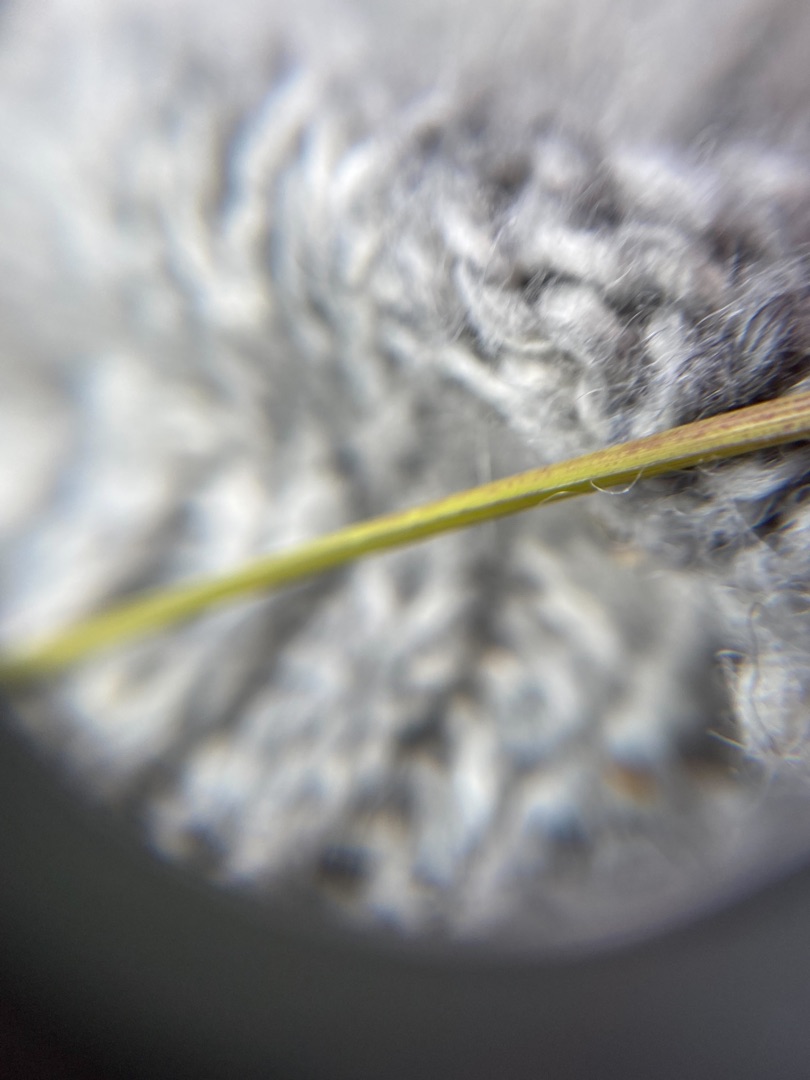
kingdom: Plantae
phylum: Tracheophyta
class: Liliopsida
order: Poales
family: Poaceae
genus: Dactylis
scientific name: Dactylis glomerata
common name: Almindelig hundegræs
